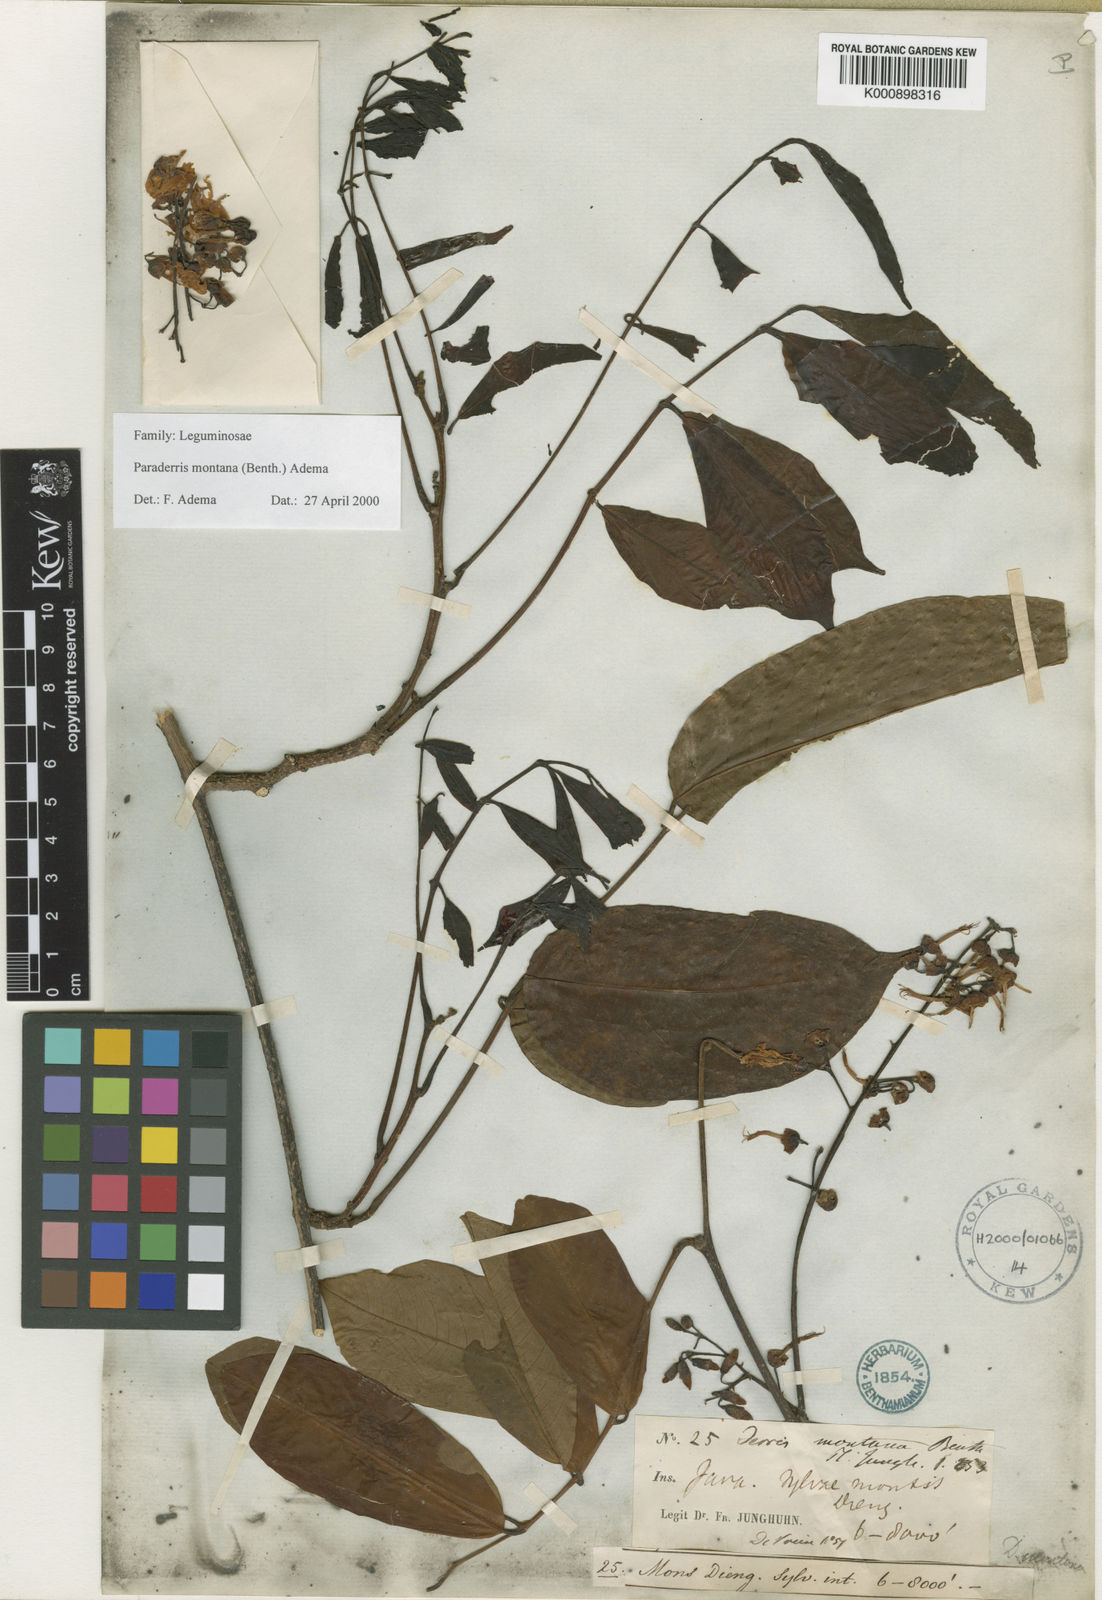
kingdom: Plantae
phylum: Tracheophyta
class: Magnoliopsida
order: Fabales
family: Fabaceae
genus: Derris
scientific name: Derris montana
